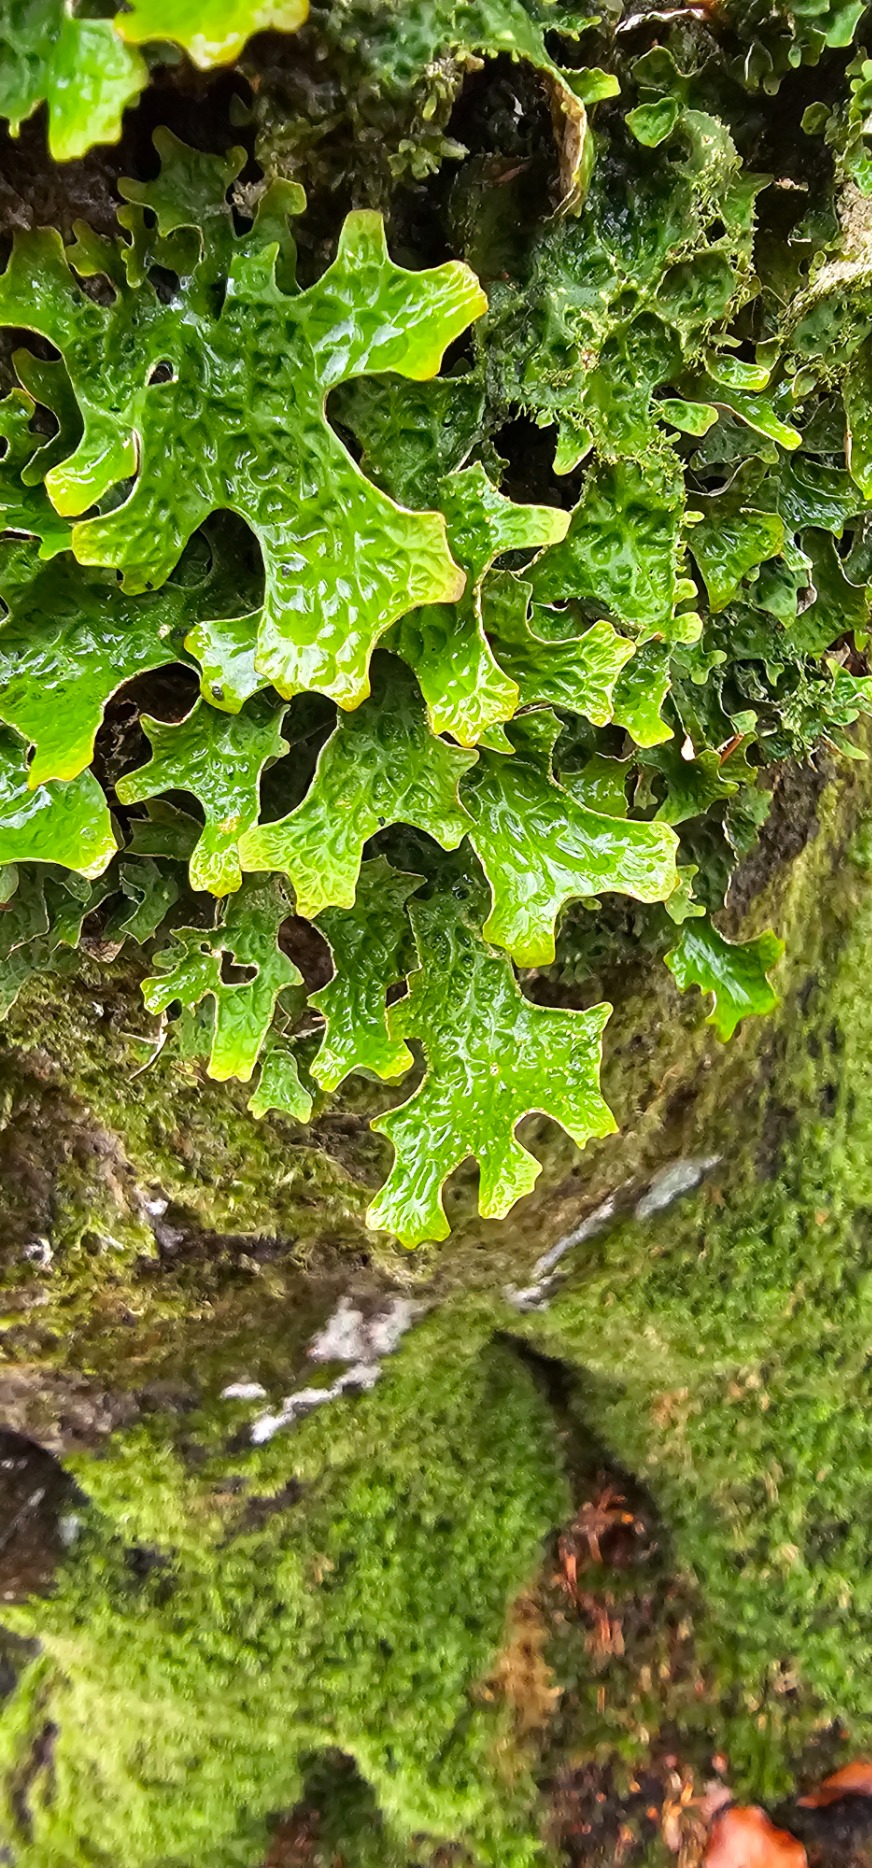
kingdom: Fungi
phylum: Ascomycota
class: Lecanoromycetes
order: Peltigerales
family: Lobariaceae
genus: Lobaria
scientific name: Lobaria pulmonaria
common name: Almindelig lungelav
